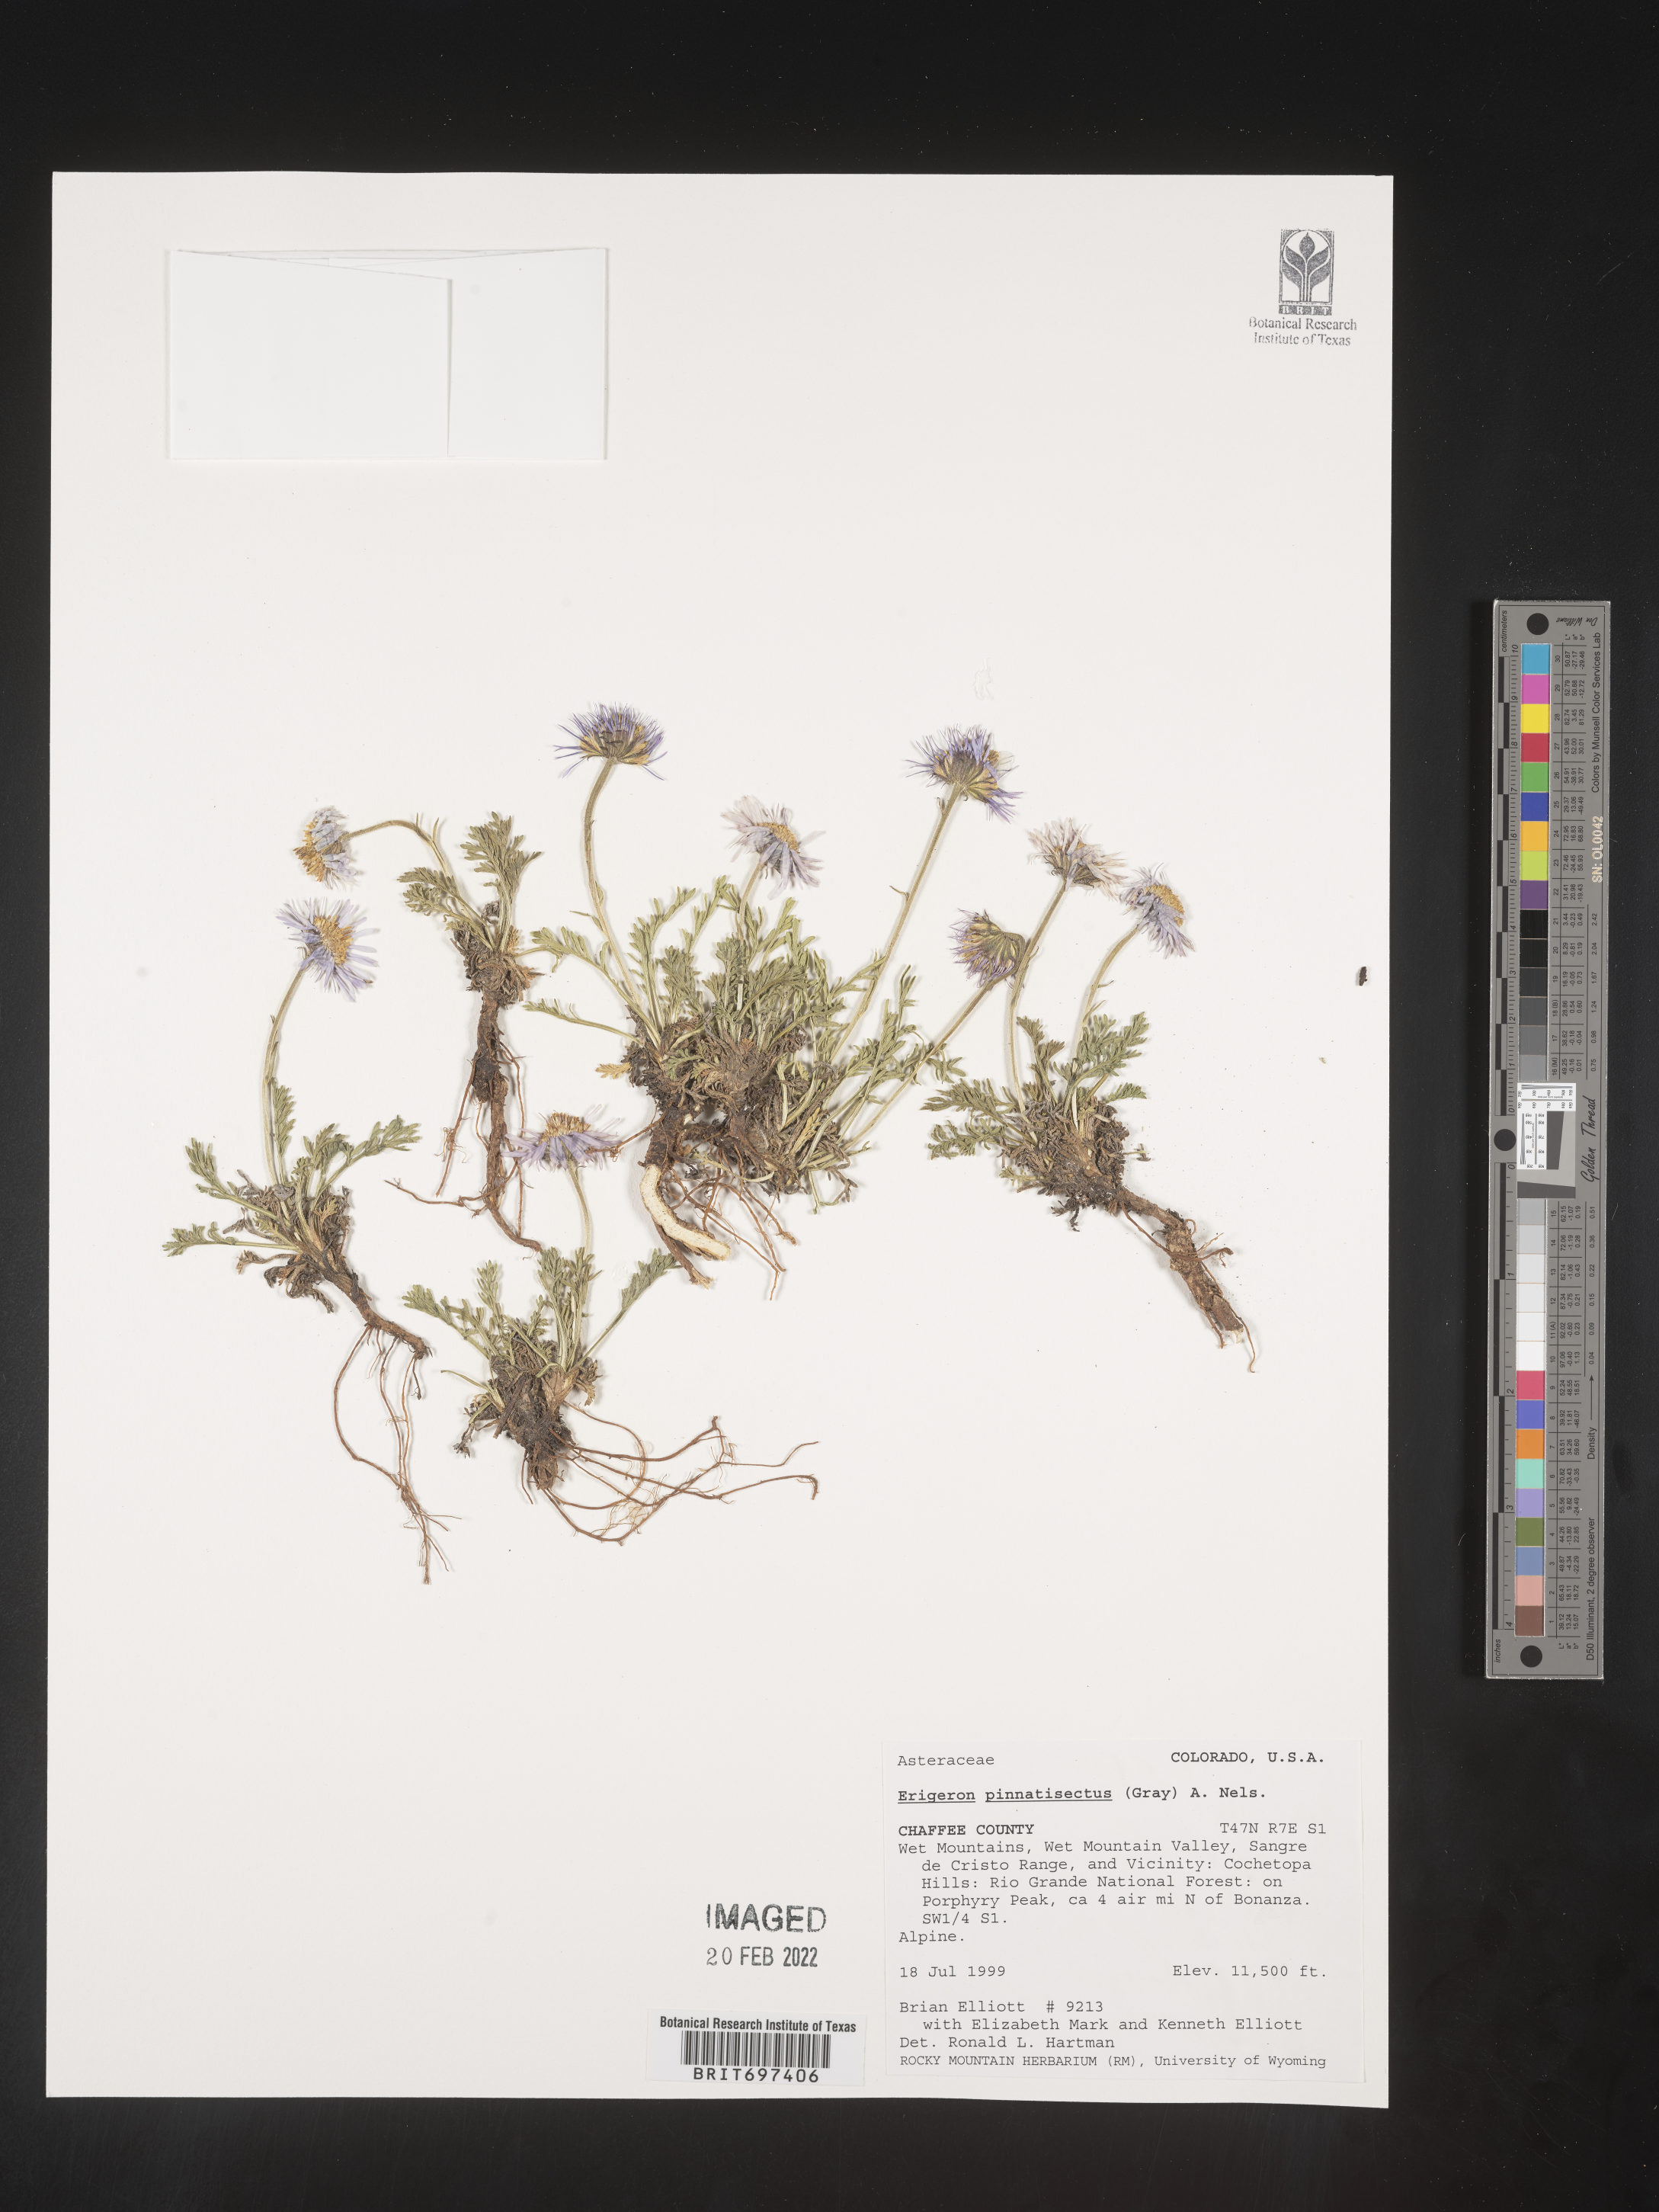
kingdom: Plantae
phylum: Tracheophyta
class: Magnoliopsida
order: Asterales
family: Asteraceae
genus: Erigeron
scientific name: Erigeron pinnatisectus
